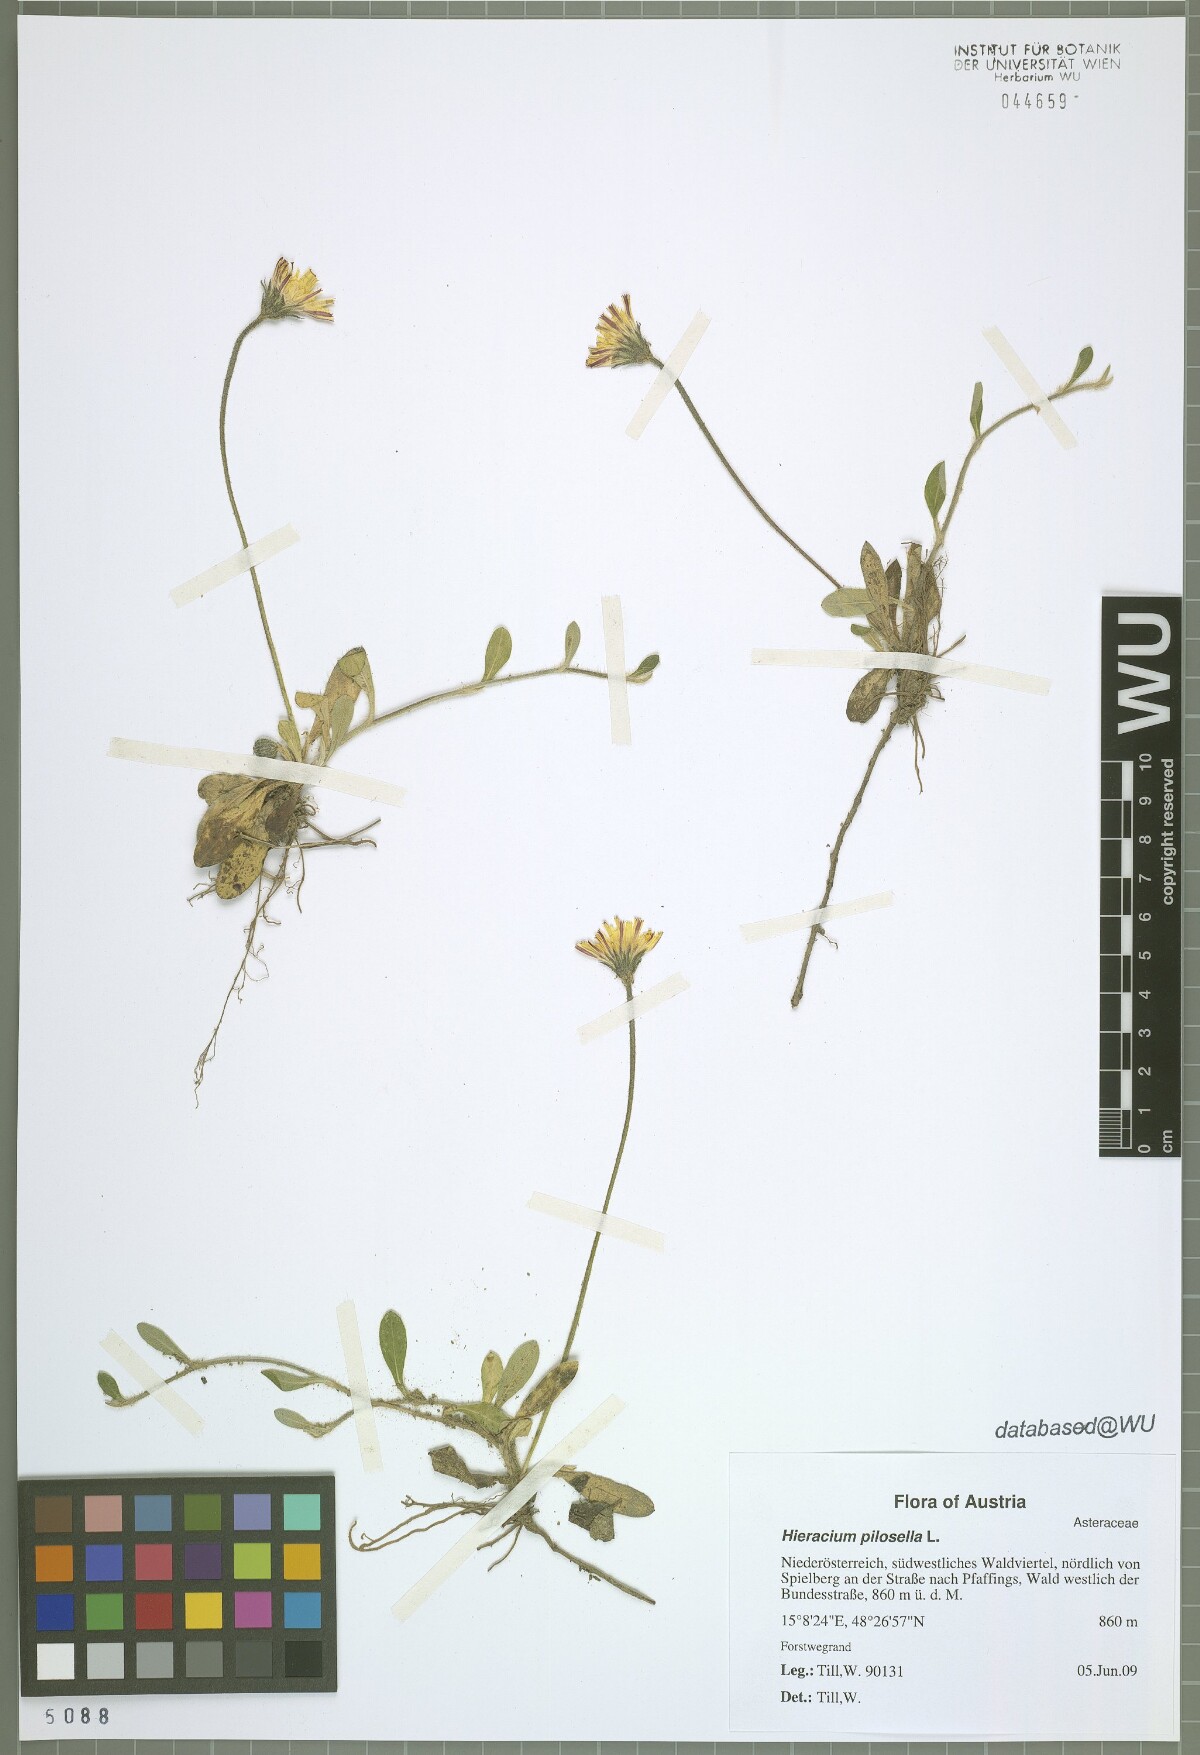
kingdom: Plantae
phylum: Tracheophyta
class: Magnoliopsida
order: Asterales
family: Asteraceae
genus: Pilosella
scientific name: Pilosella officinarum
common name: Mouse-ear hawkweed
